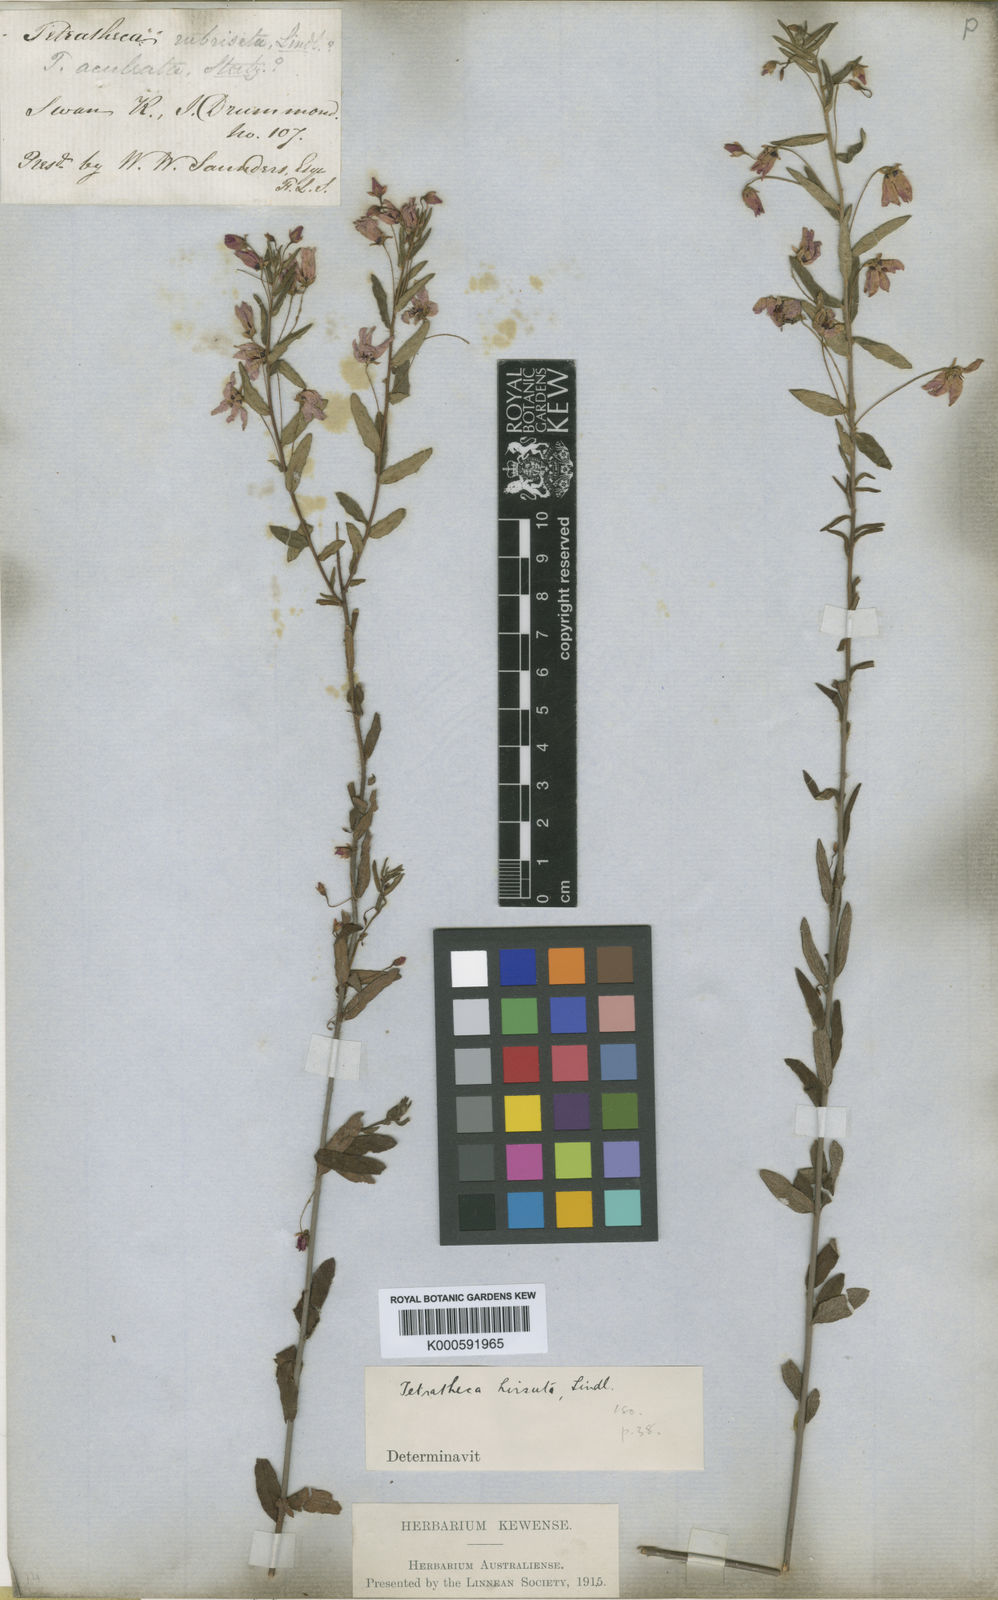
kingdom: Plantae
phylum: Tracheophyta
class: Magnoliopsida
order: Oxalidales
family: Elaeocarpaceae
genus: Tetratheca
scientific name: Tetratheca hirsuta
